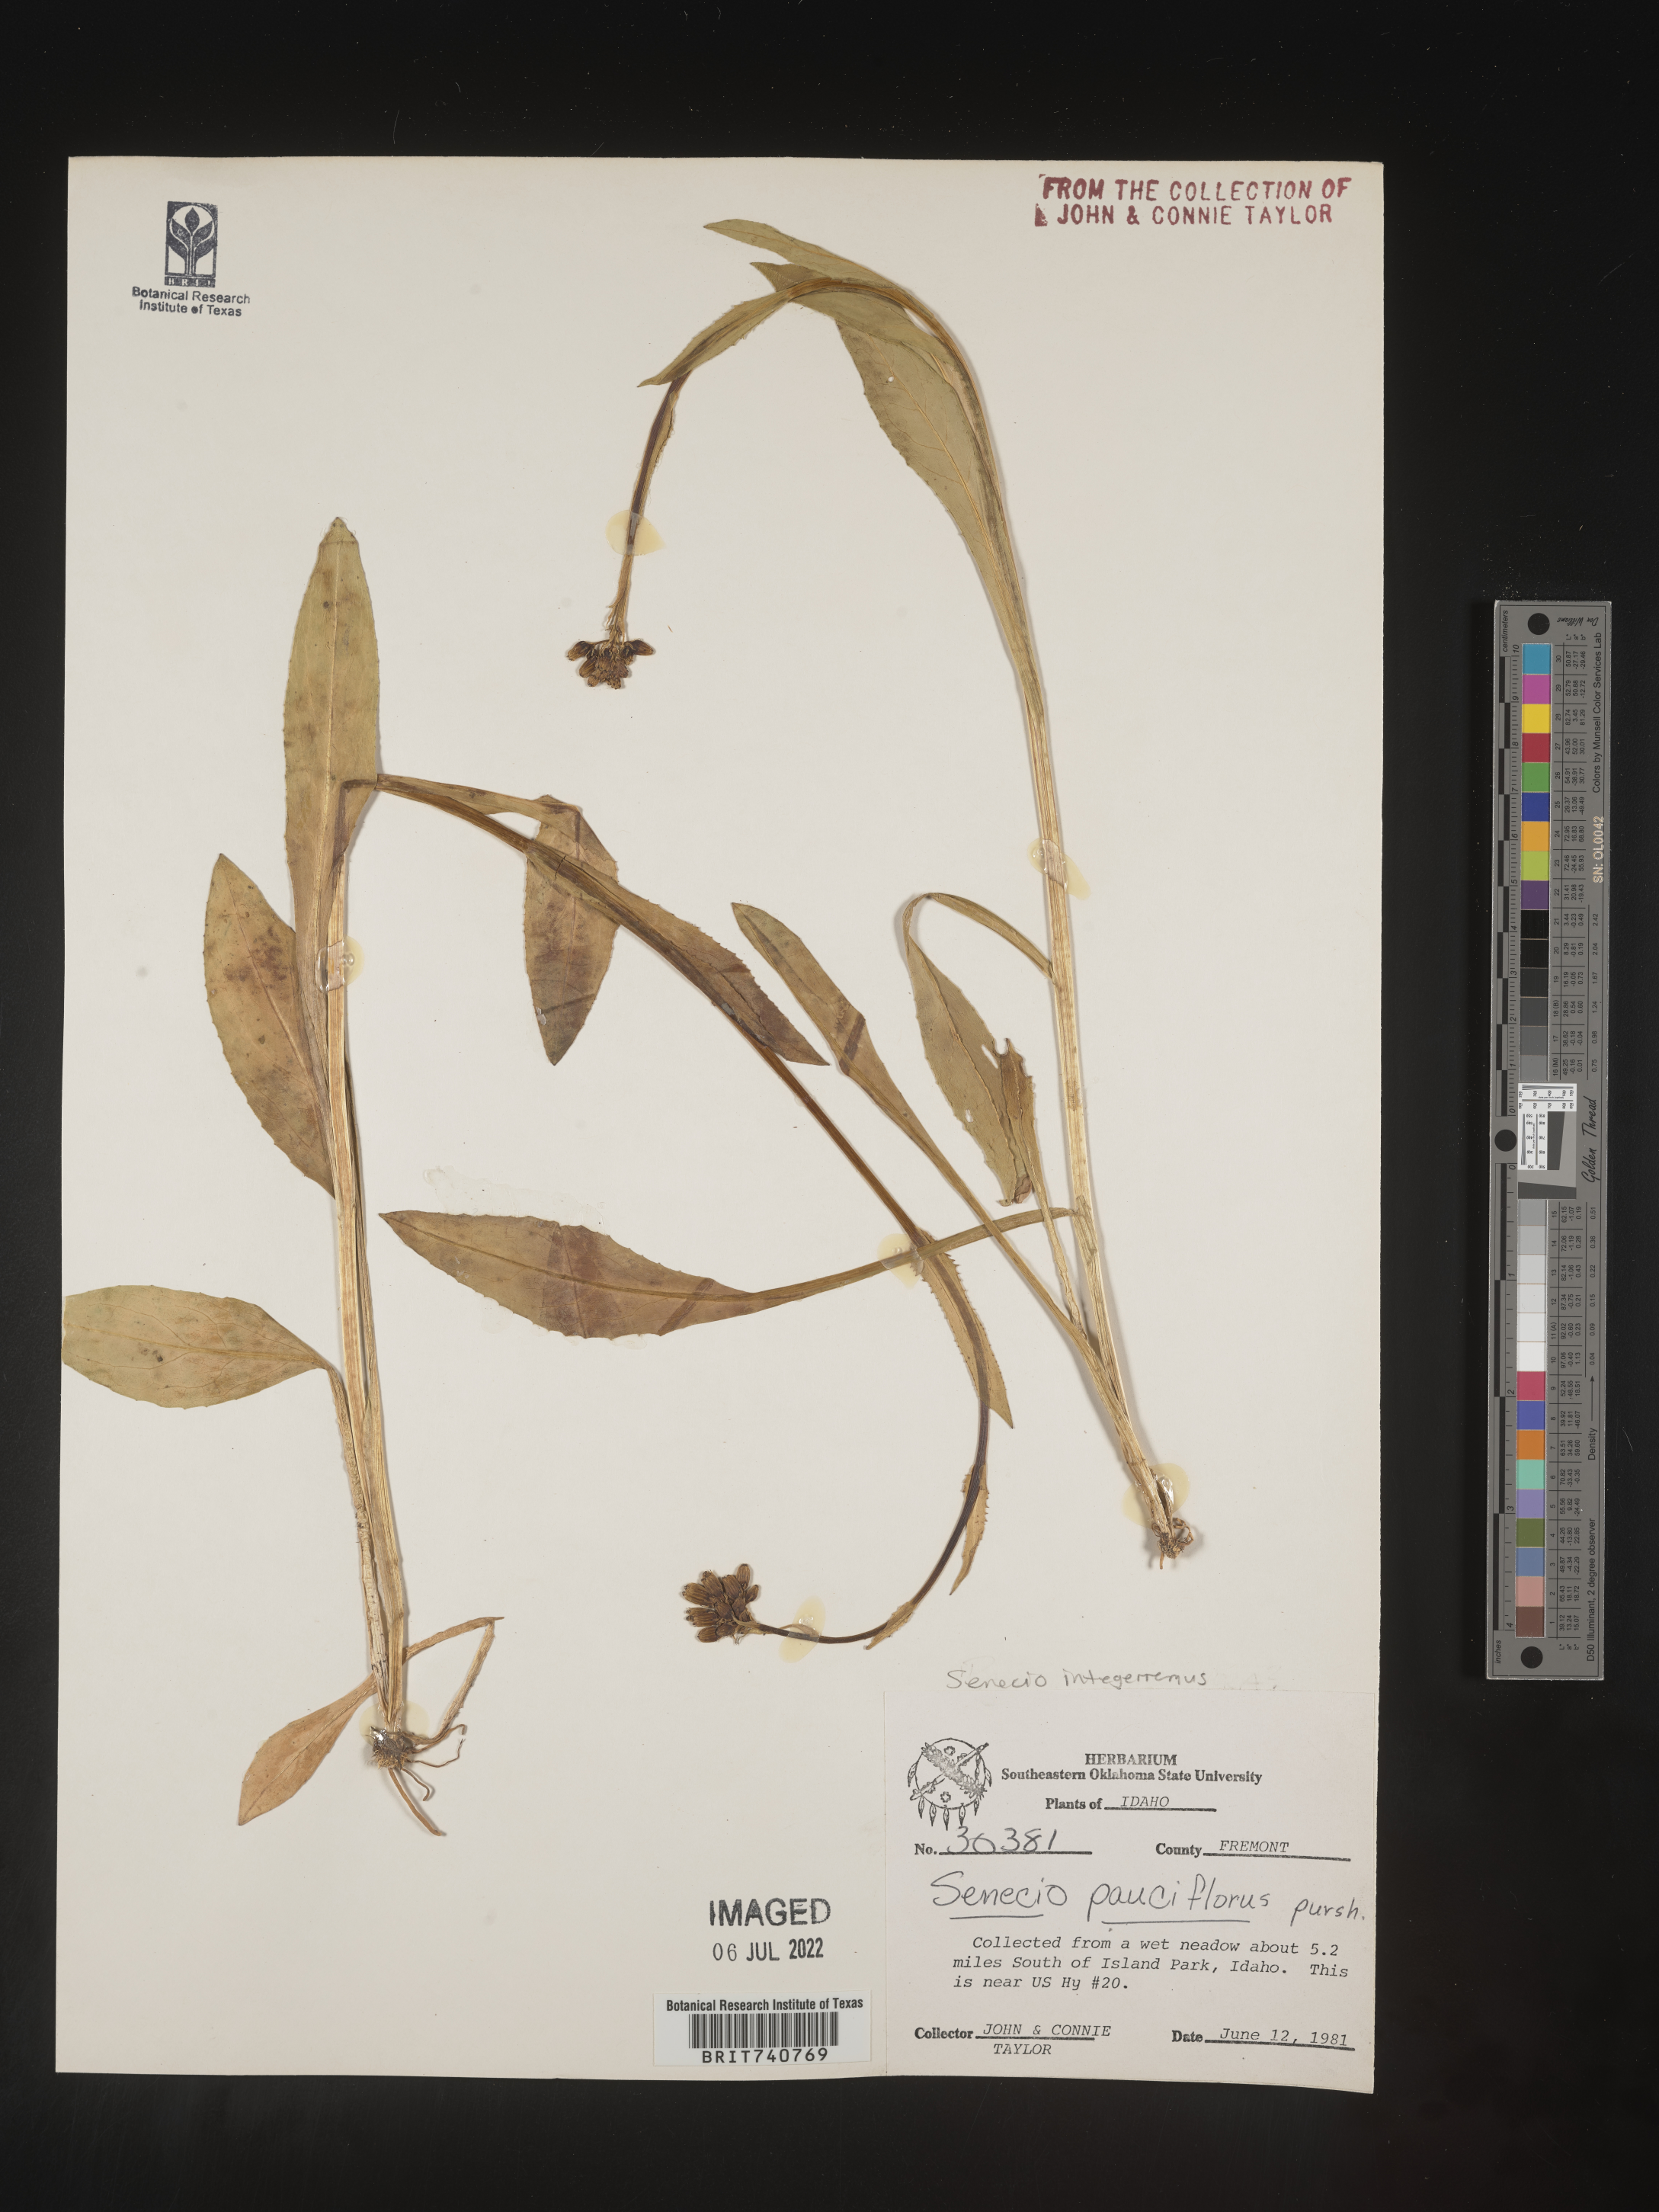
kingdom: Plantae
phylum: Tracheophyta
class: Magnoliopsida
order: Asterales
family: Asteraceae
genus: Senecio
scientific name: Senecio integerrimus
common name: Gaugeplant
